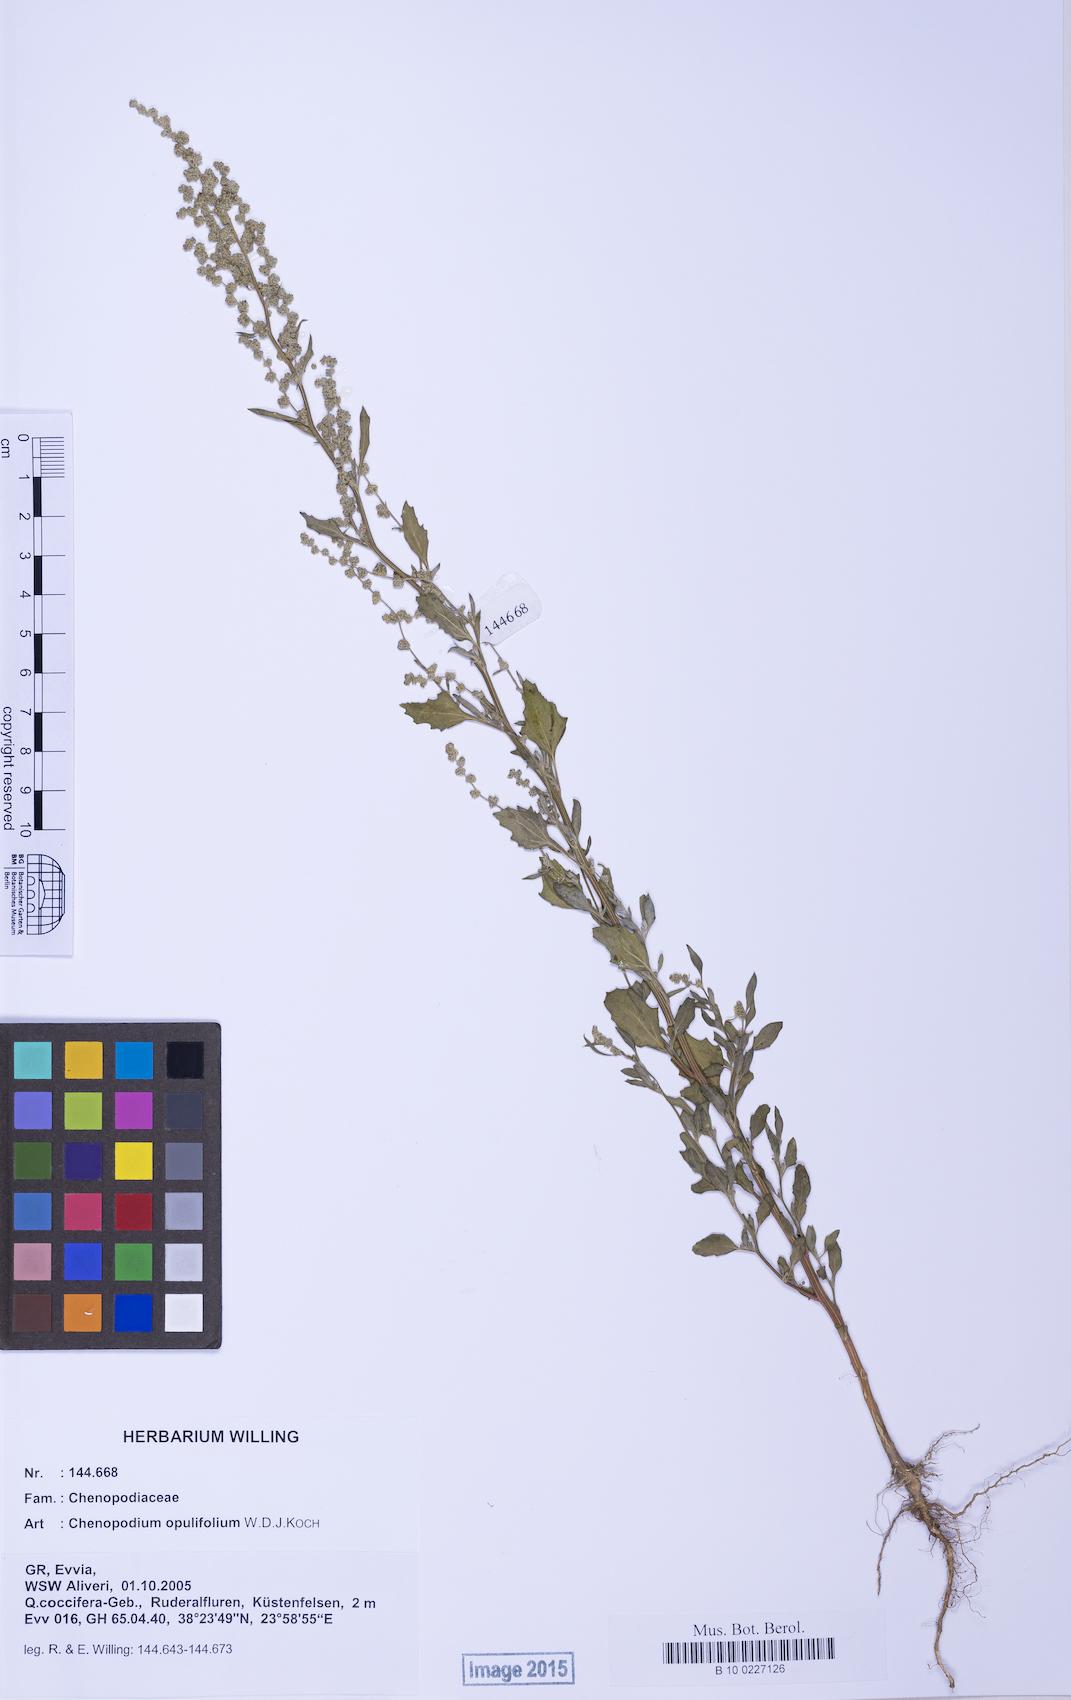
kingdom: Plantae
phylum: Tracheophyta
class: Magnoliopsida
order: Caryophyllales
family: Amaranthaceae
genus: Chenopodium
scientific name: Chenopodium album
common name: Fat-hen
